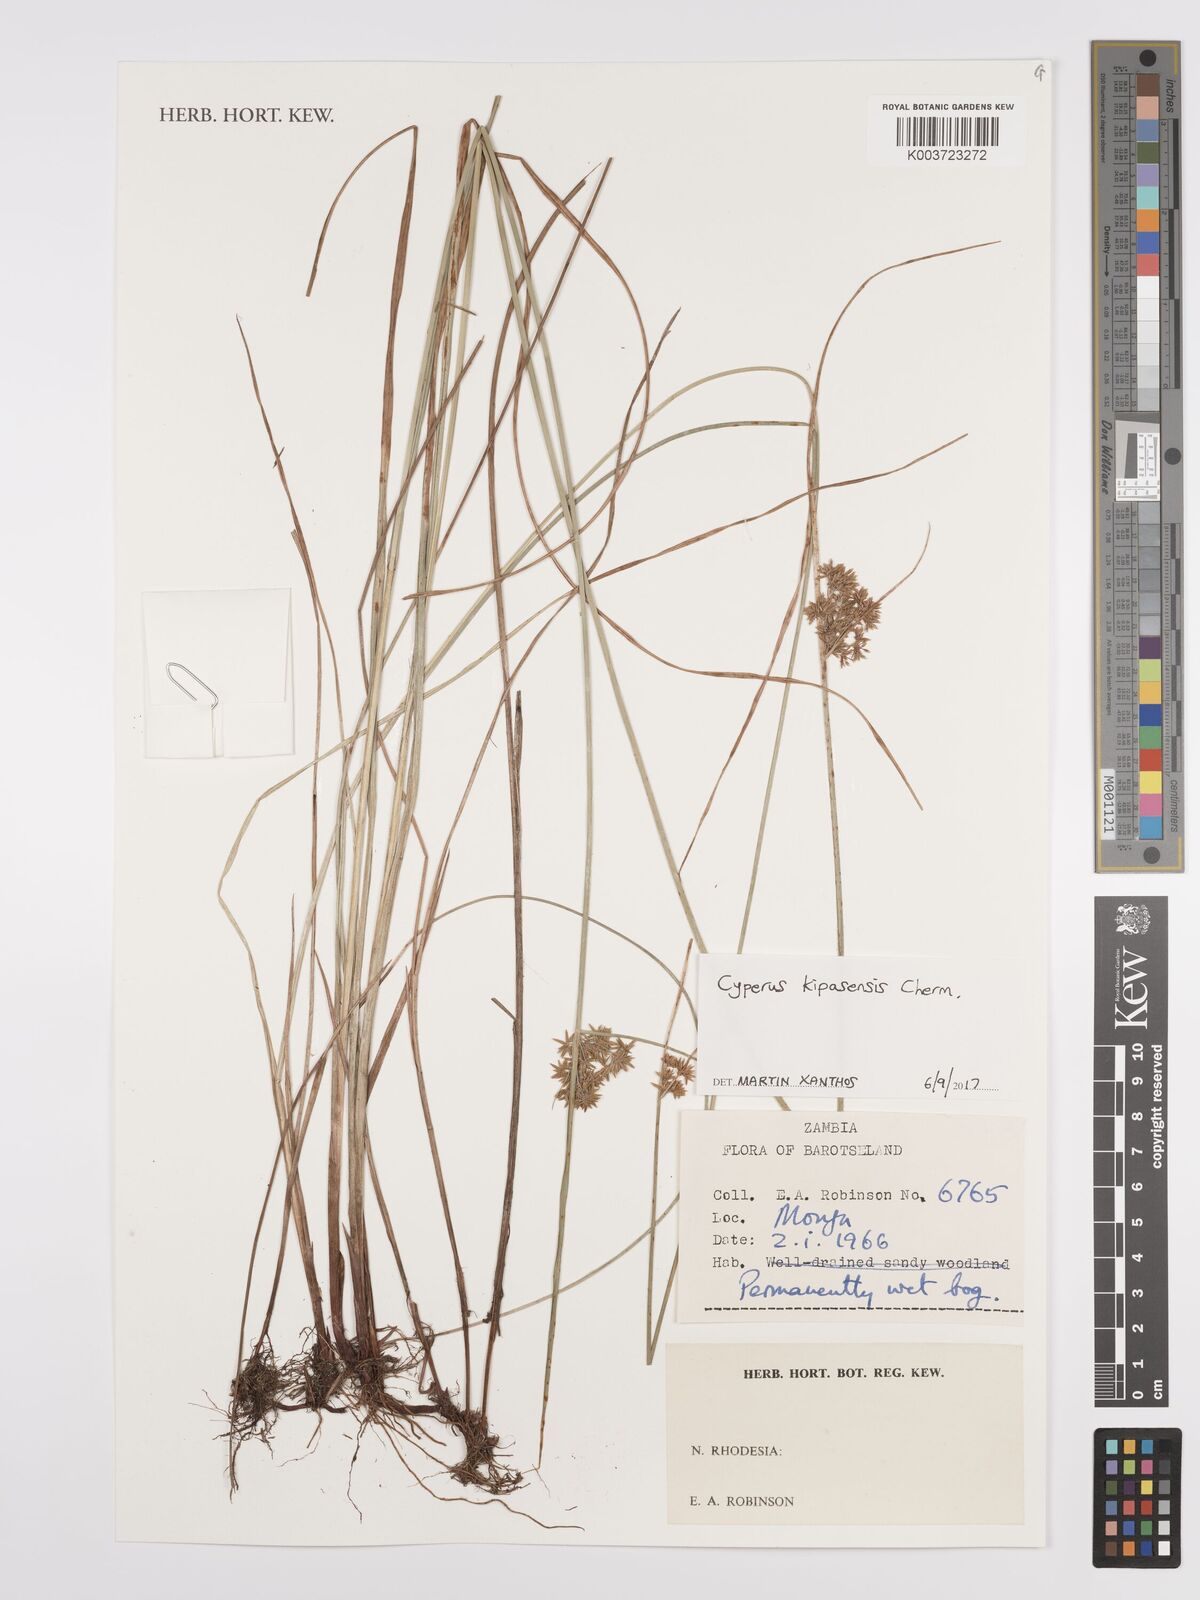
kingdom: Plantae
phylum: Tracheophyta
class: Liliopsida
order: Poales
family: Cyperaceae
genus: Cyperus
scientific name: Cyperus kipasensis
